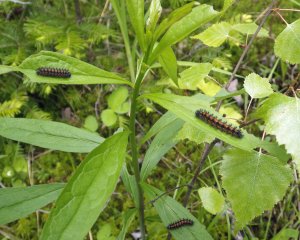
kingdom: Animalia
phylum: Arthropoda
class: Insecta
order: Lepidoptera
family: Nymphalidae
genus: Chlosyne
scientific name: Chlosyne harrisii
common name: Harris's Checkerspot
